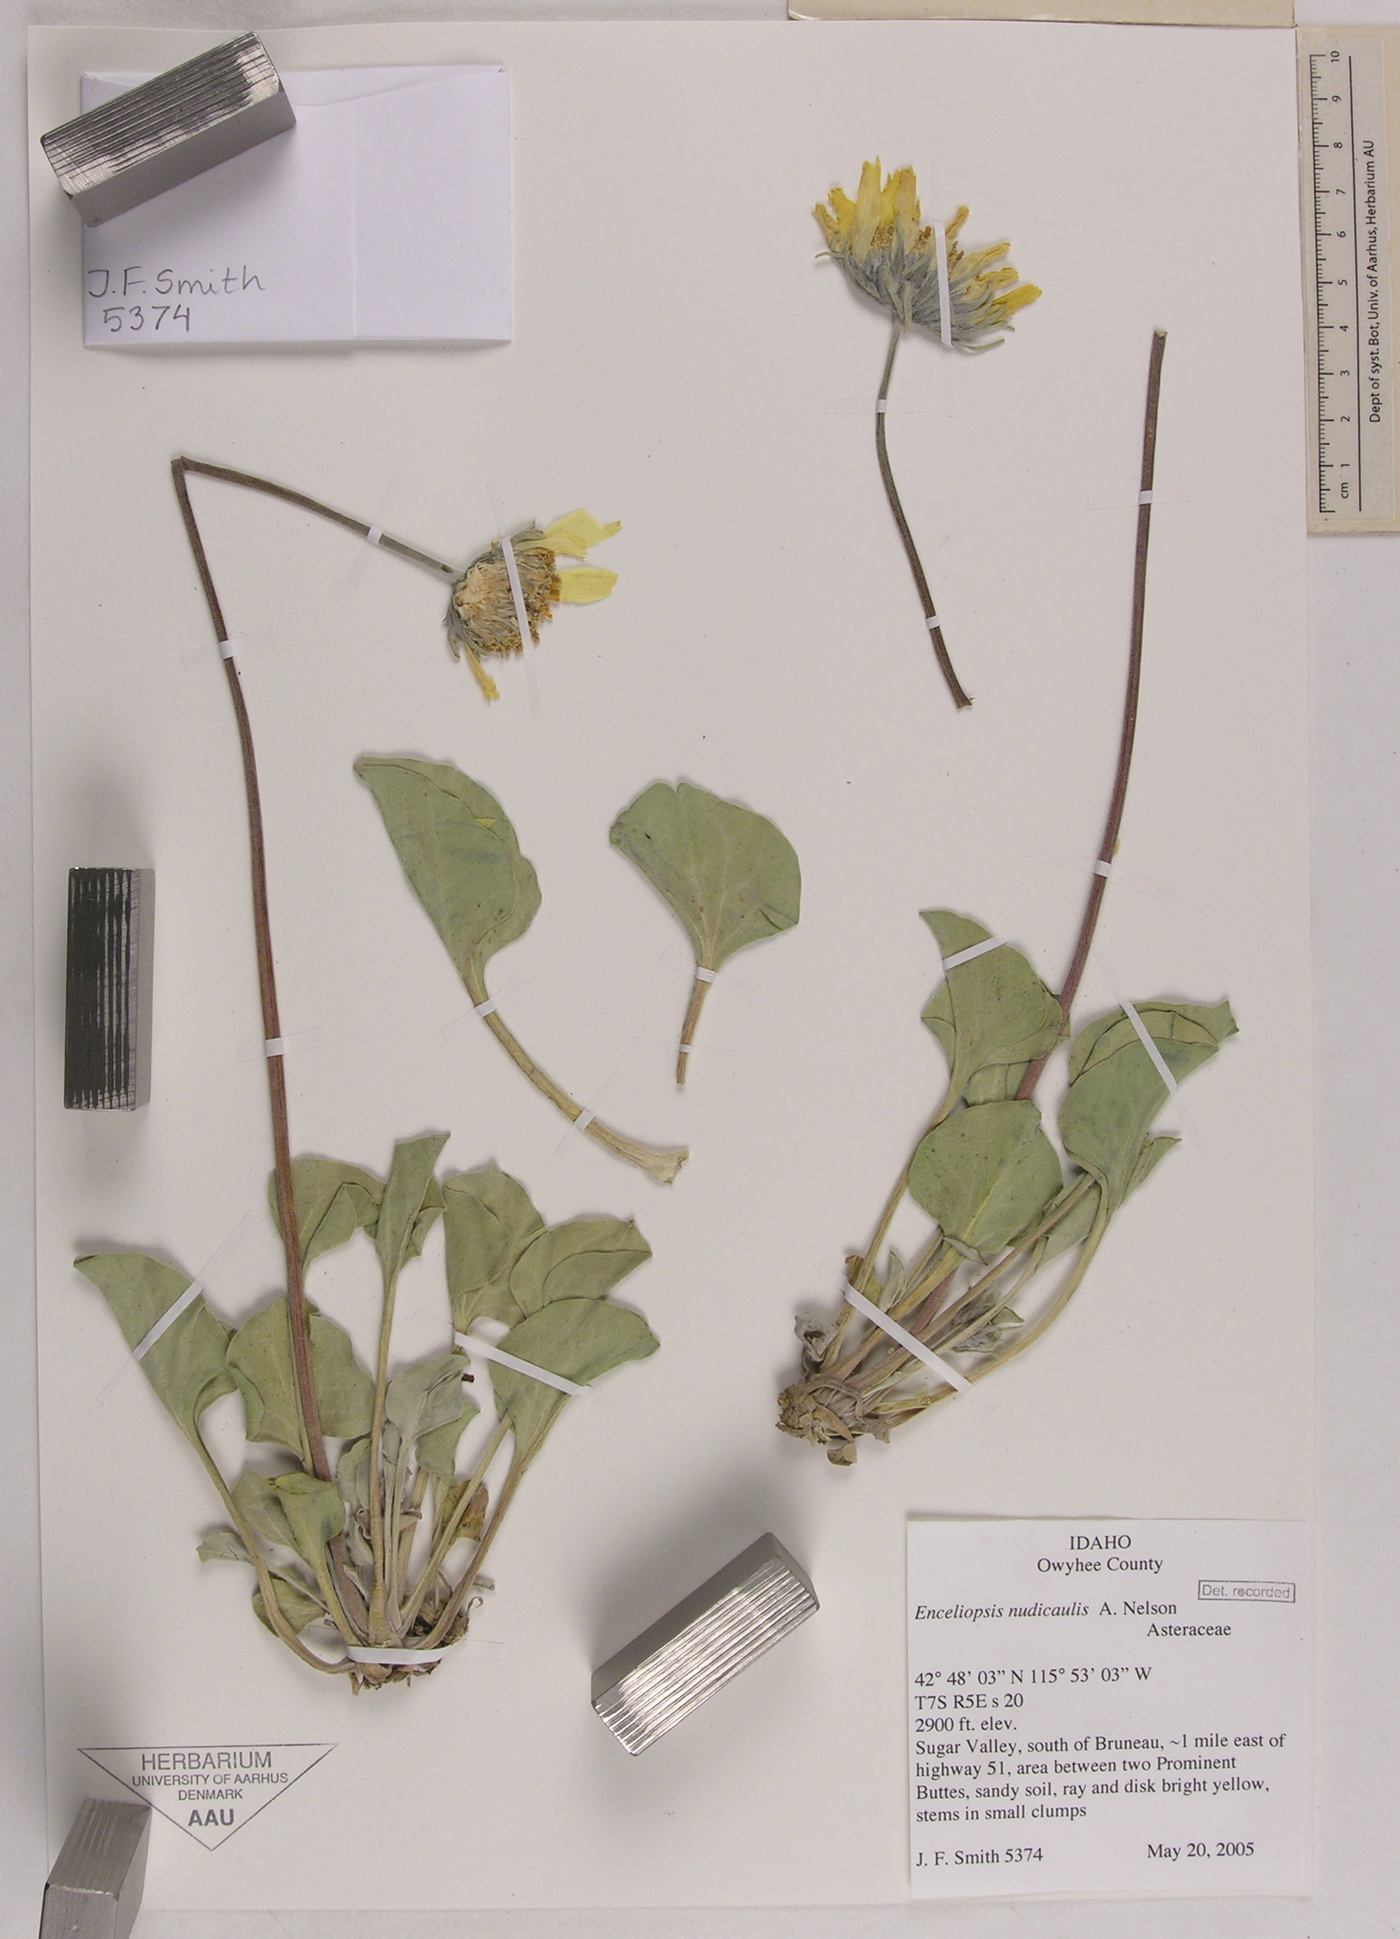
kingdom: Plantae
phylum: Tracheophyta
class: Magnoliopsida
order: Asterales
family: Asteraceae
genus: Enceliopsis
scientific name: Enceliopsis nudicaulis
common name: Naked-stem daisy
